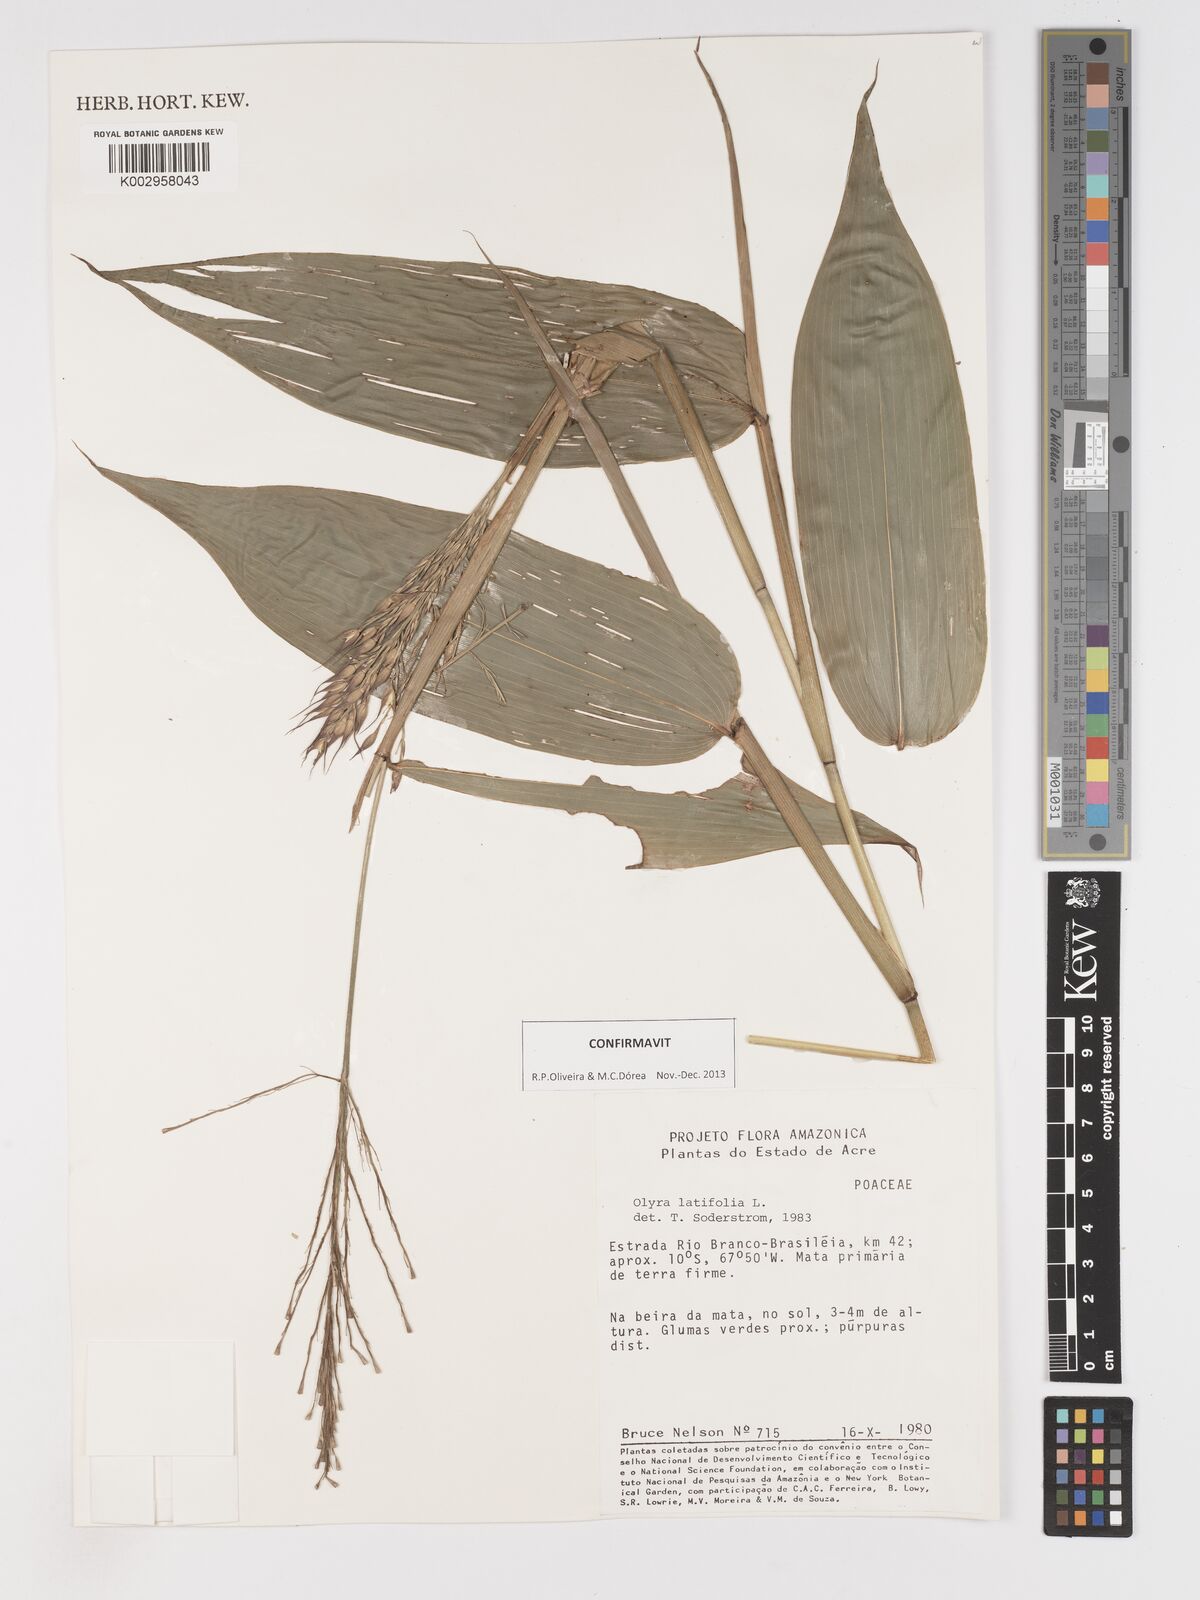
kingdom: Plantae
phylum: Tracheophyta
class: Liliopsida
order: Poales
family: Poaceae
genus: Olyra
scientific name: Olyra latifolia
